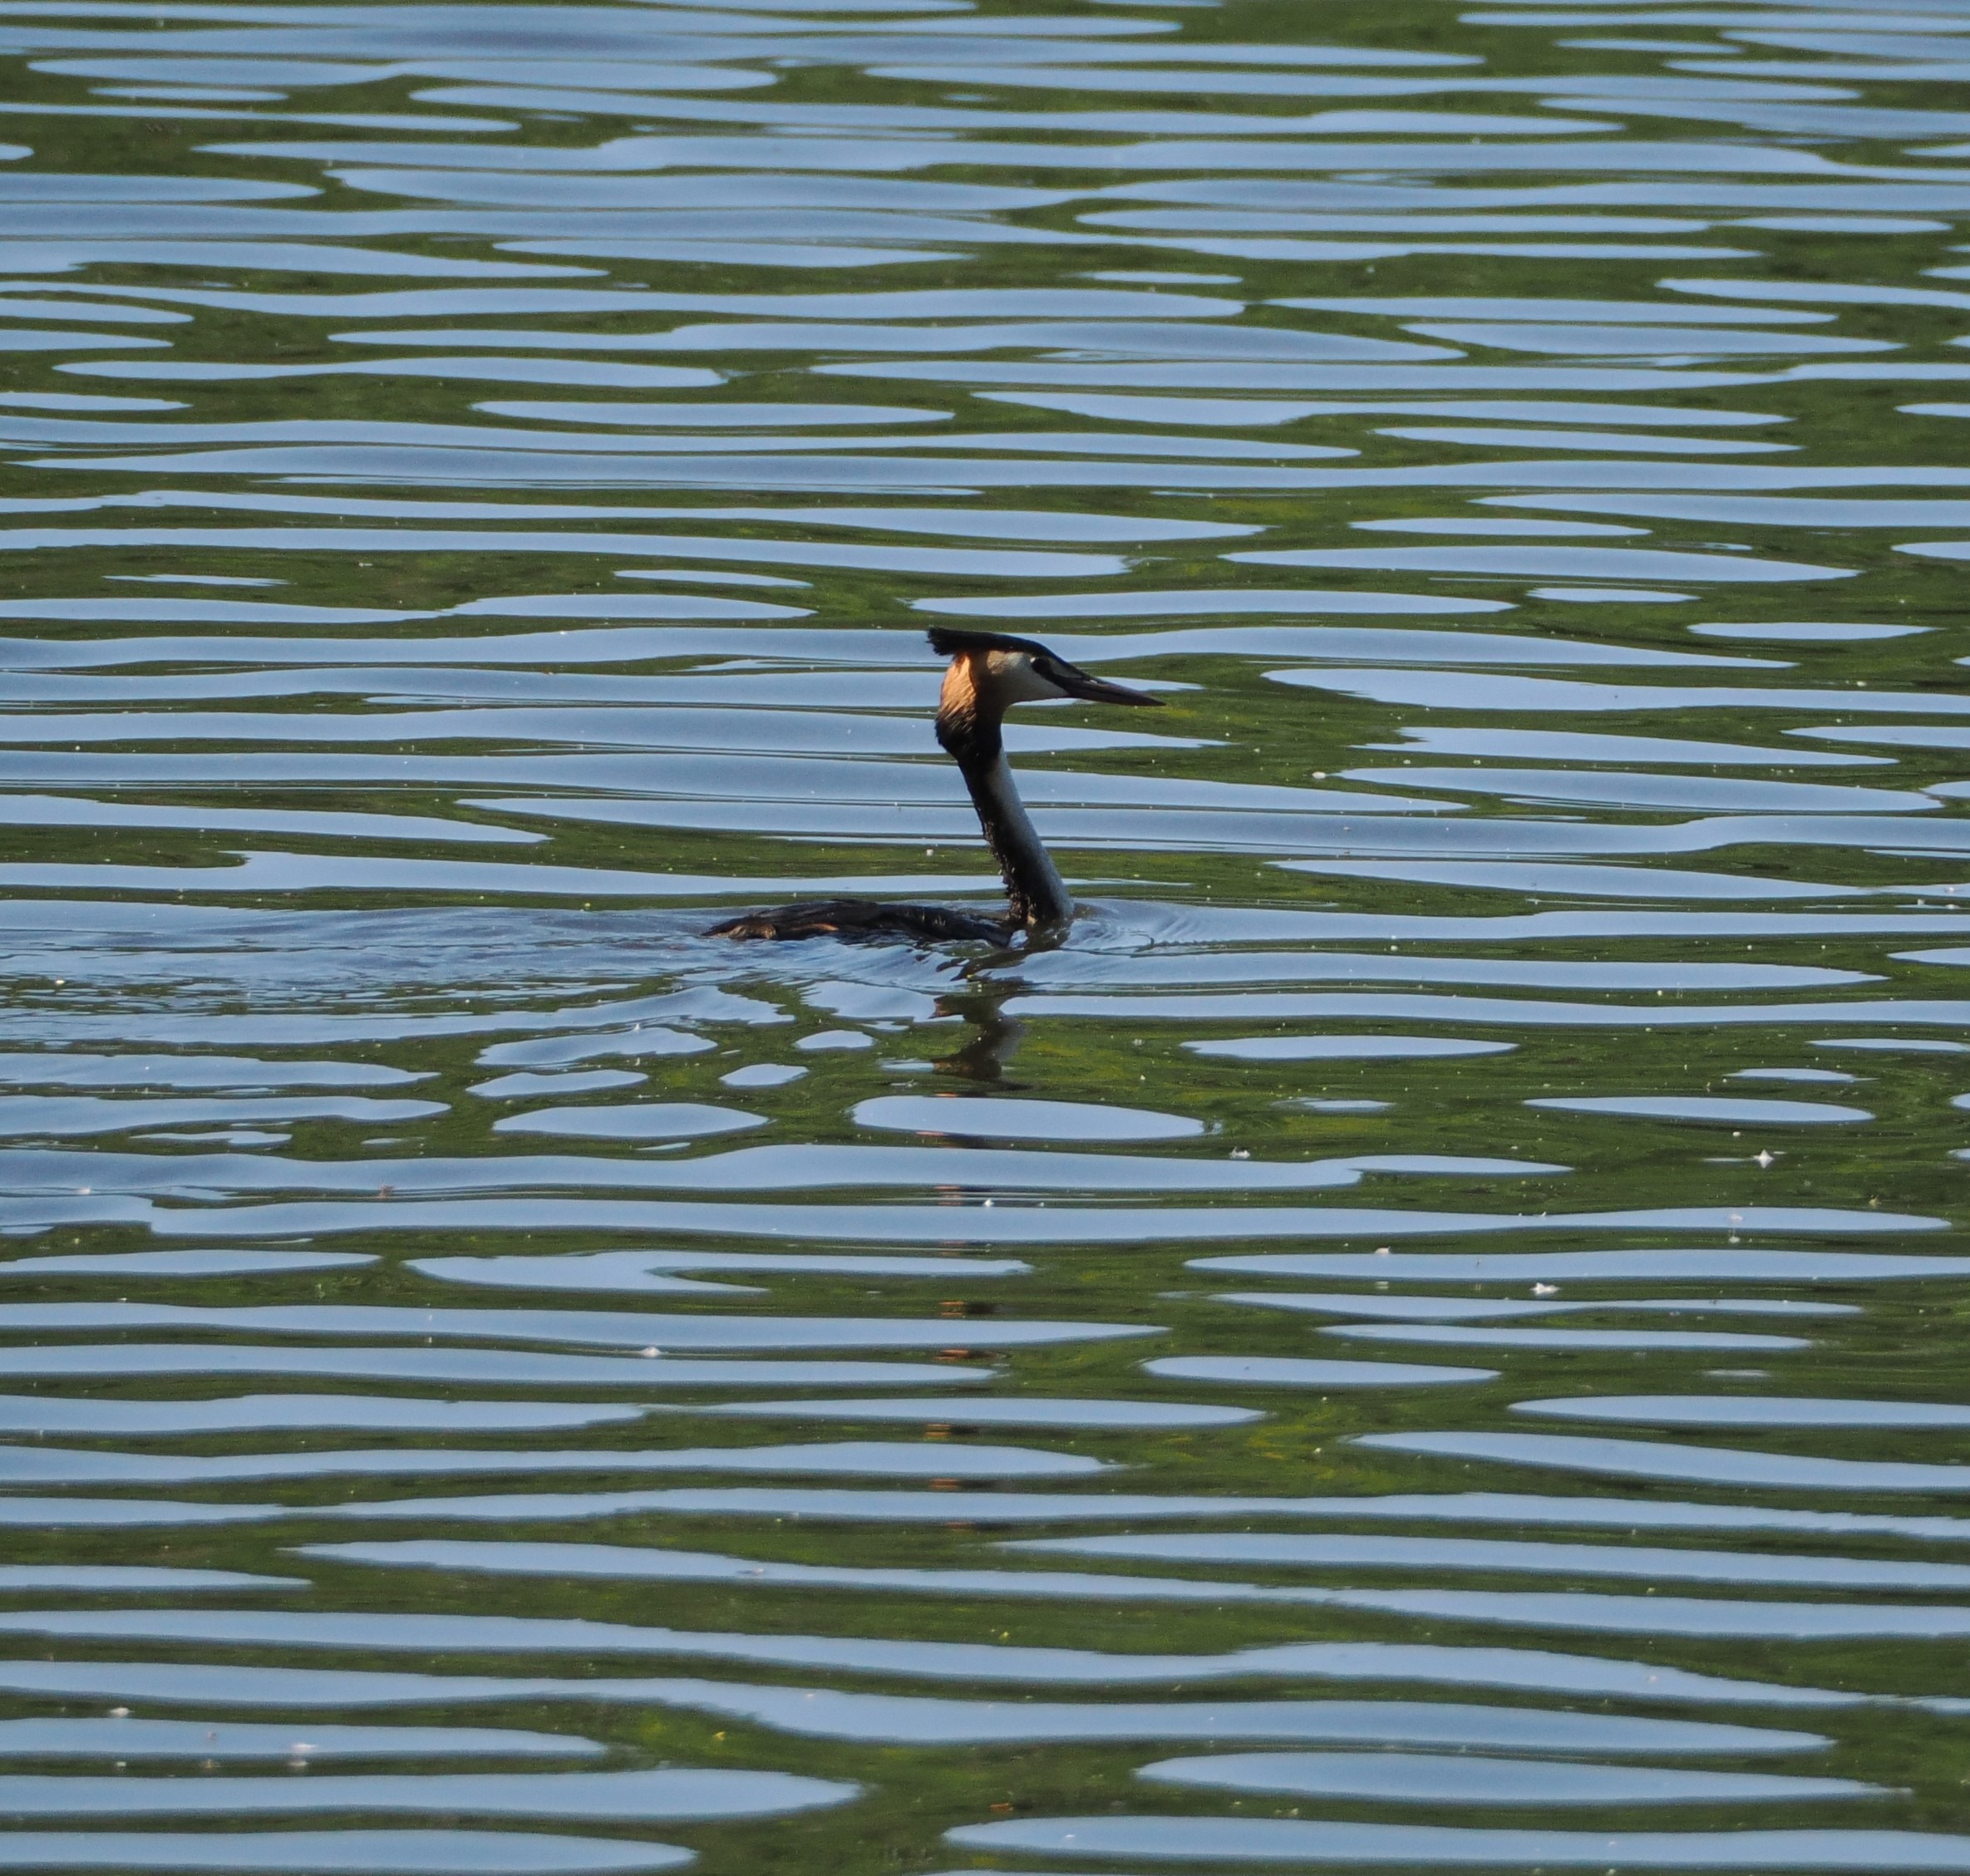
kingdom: Animalia
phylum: Chordata
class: Aves
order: Podicipediformes
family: Podicipedidae
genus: Podiceps
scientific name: Podiceps cristatus
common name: Toppet lappedykker
